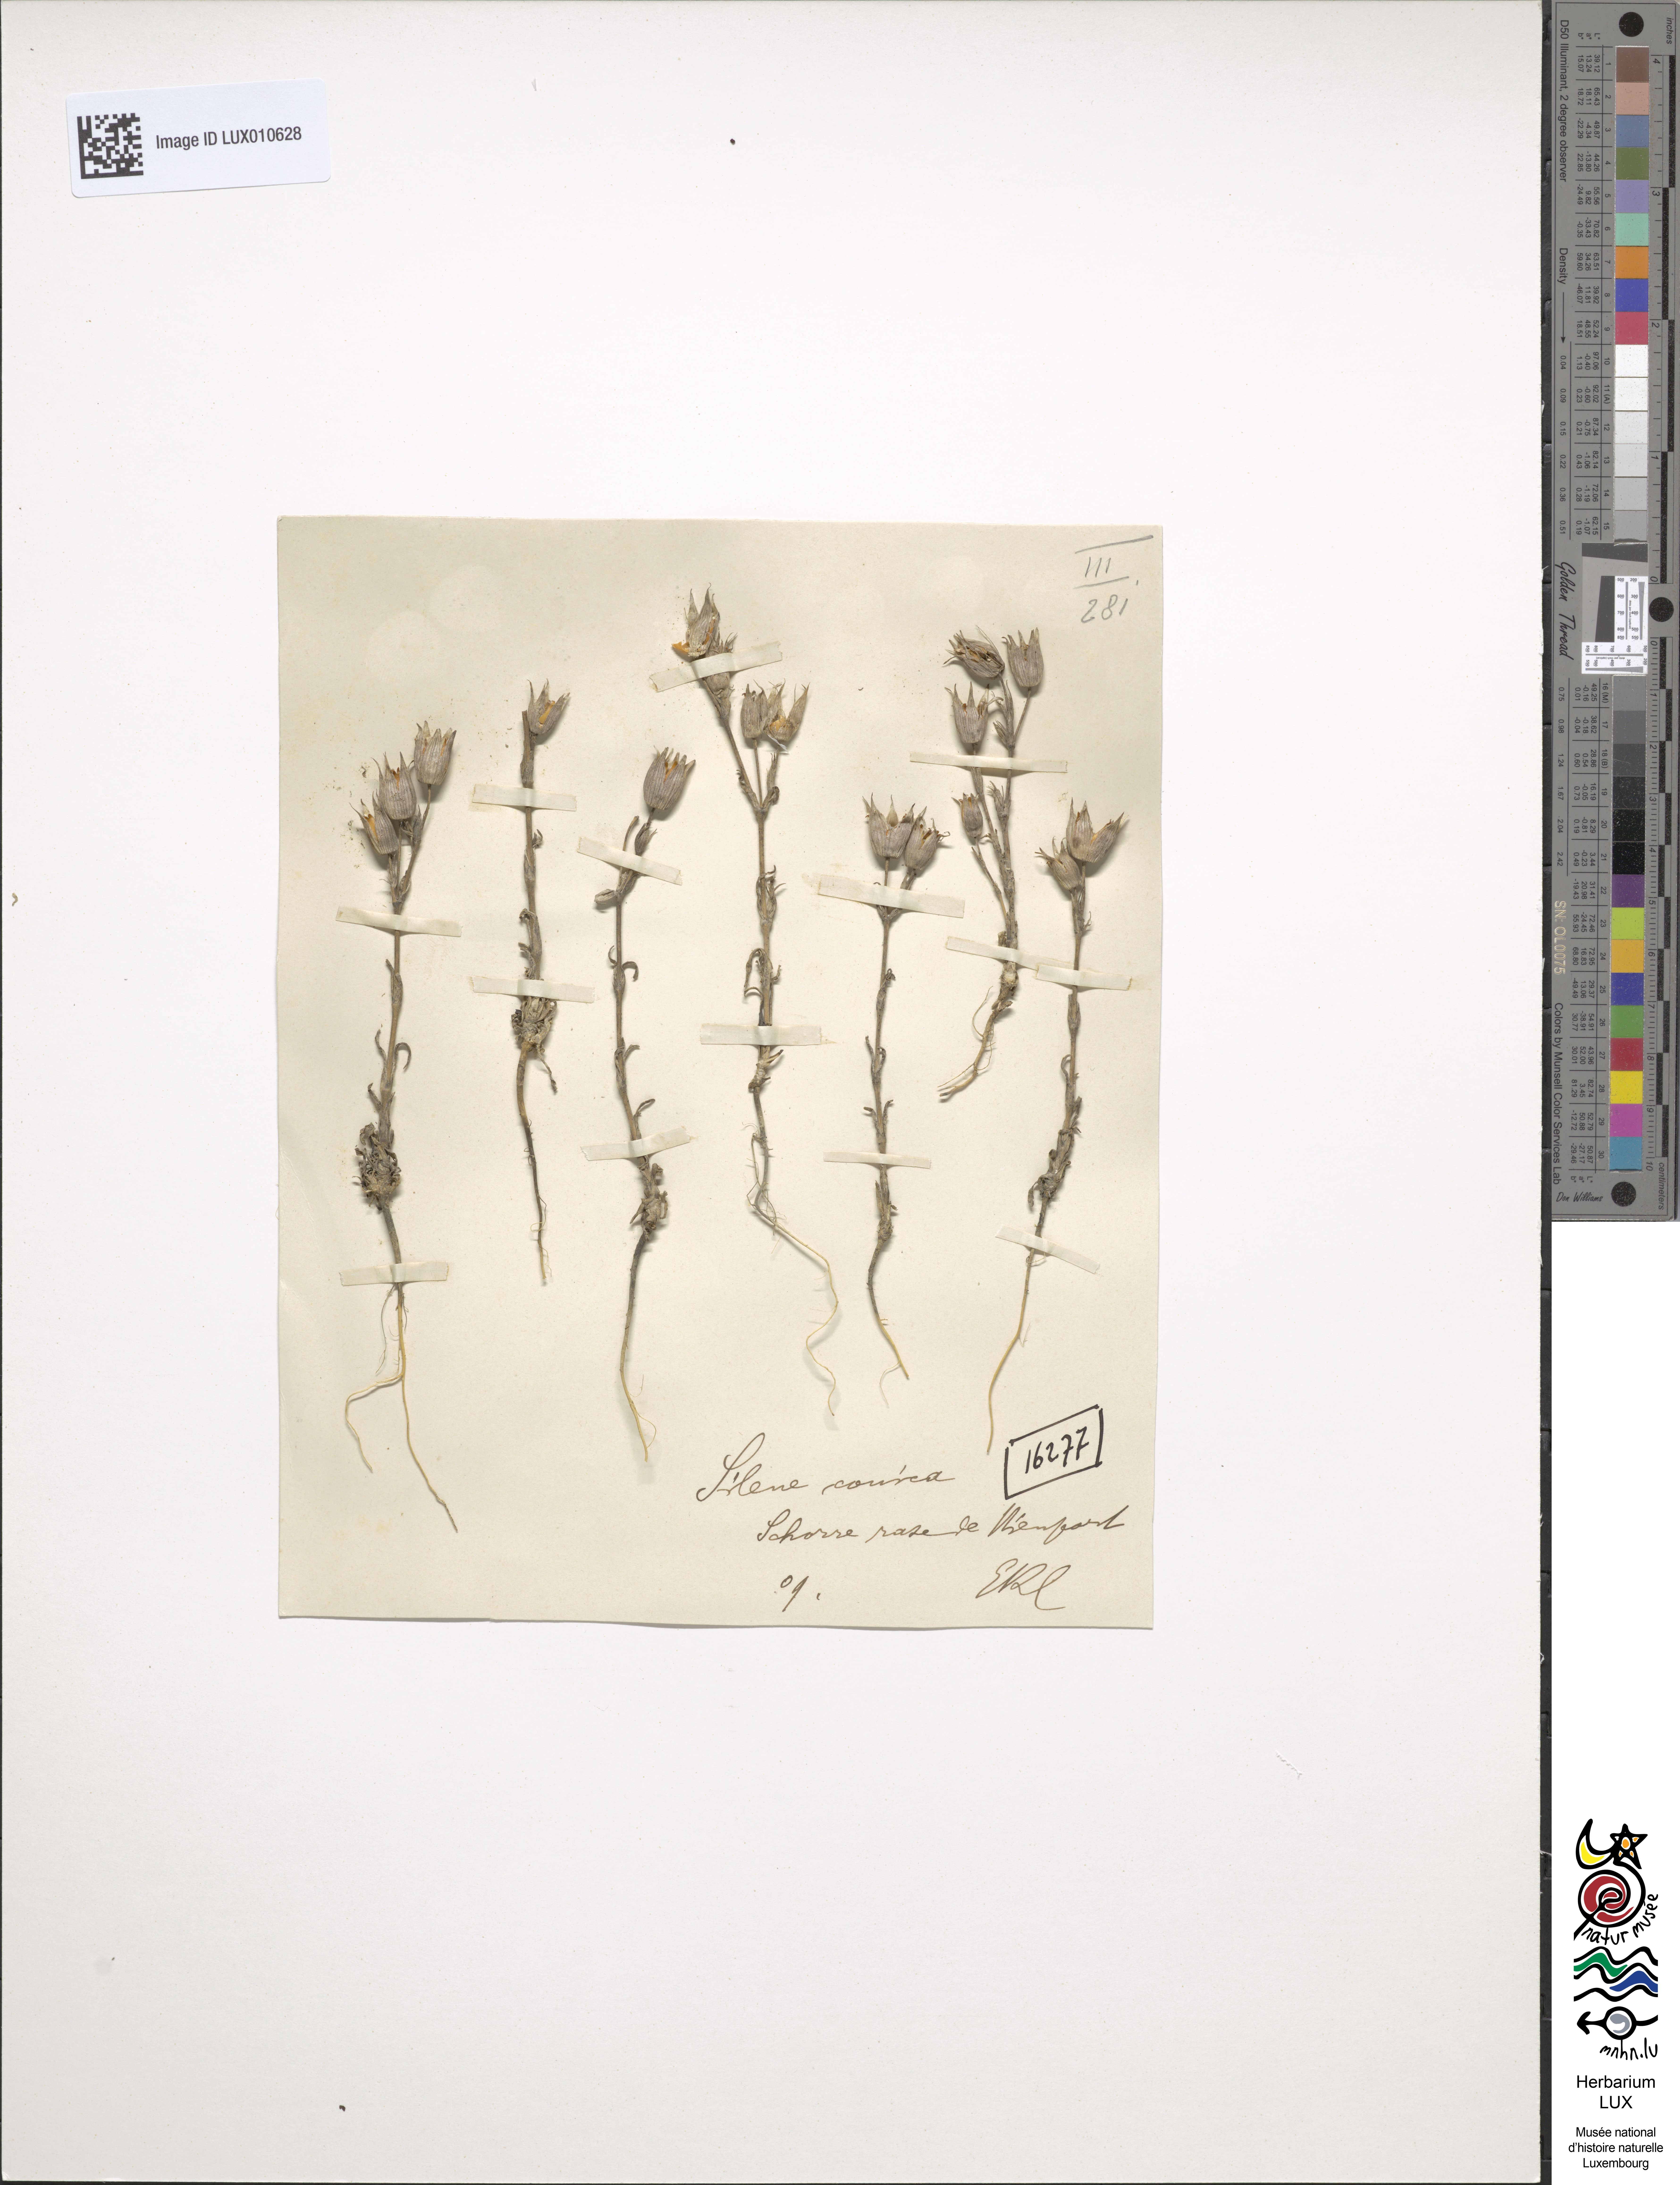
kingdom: Plantae
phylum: Tracheophyta
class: Magnoliopsida
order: Caryophyllales
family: Caryophyllaceae
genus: Silene
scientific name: Silene conica
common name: Sand catchfly
